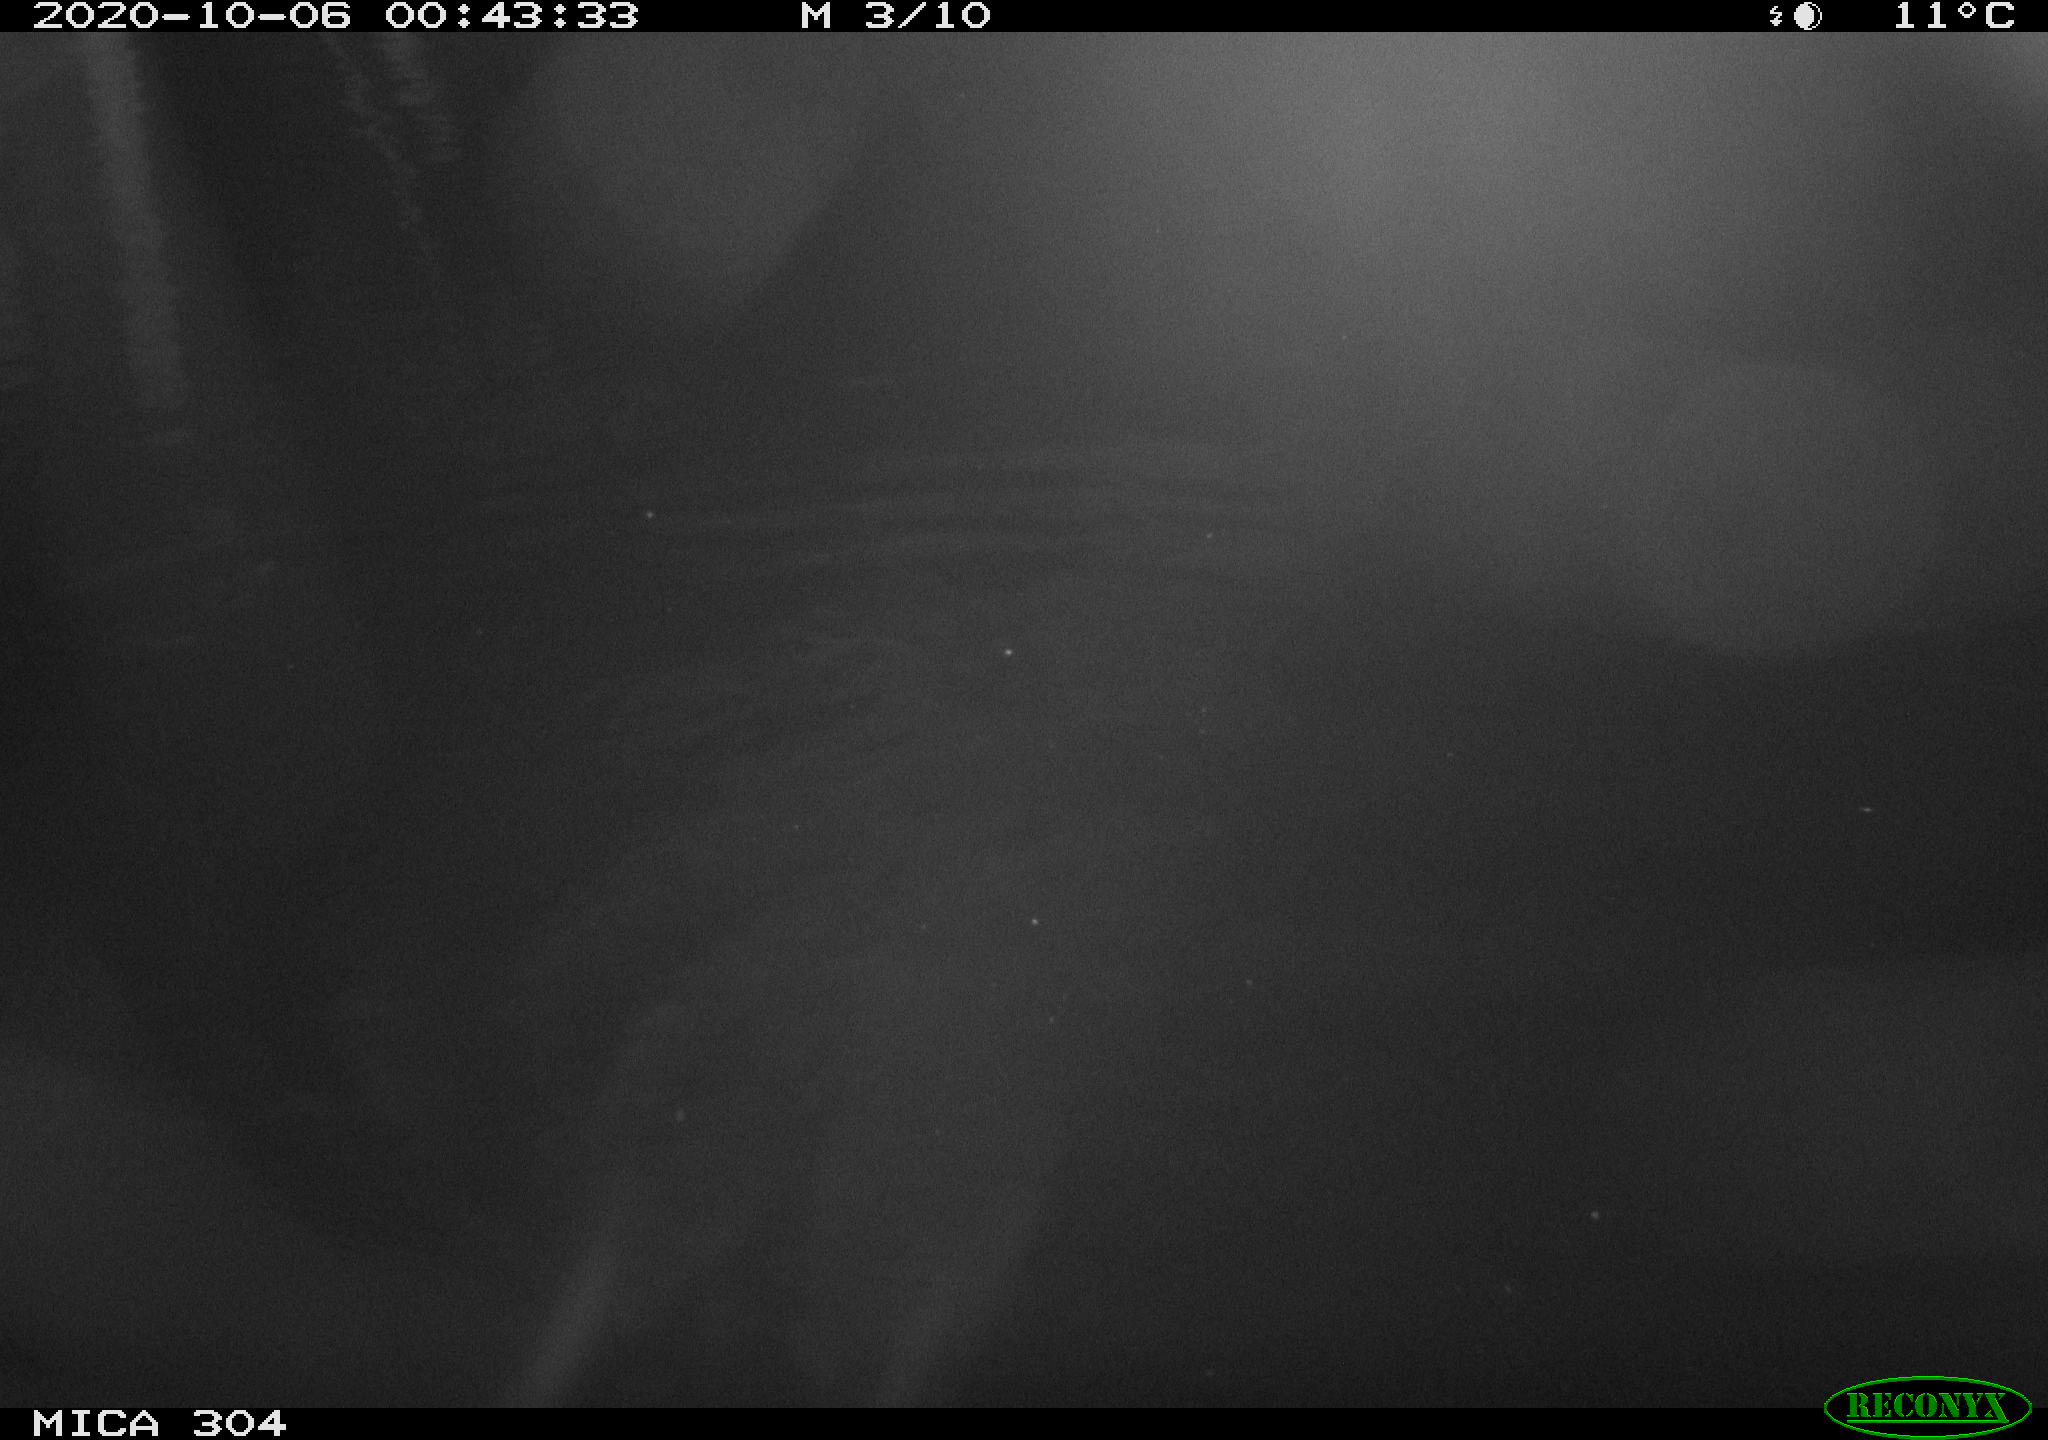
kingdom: Animalia
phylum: Chordata
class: Mammalia
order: Rodentia
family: Muridae
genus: Rattus
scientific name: Rattus norvegicus
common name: Brown rat
